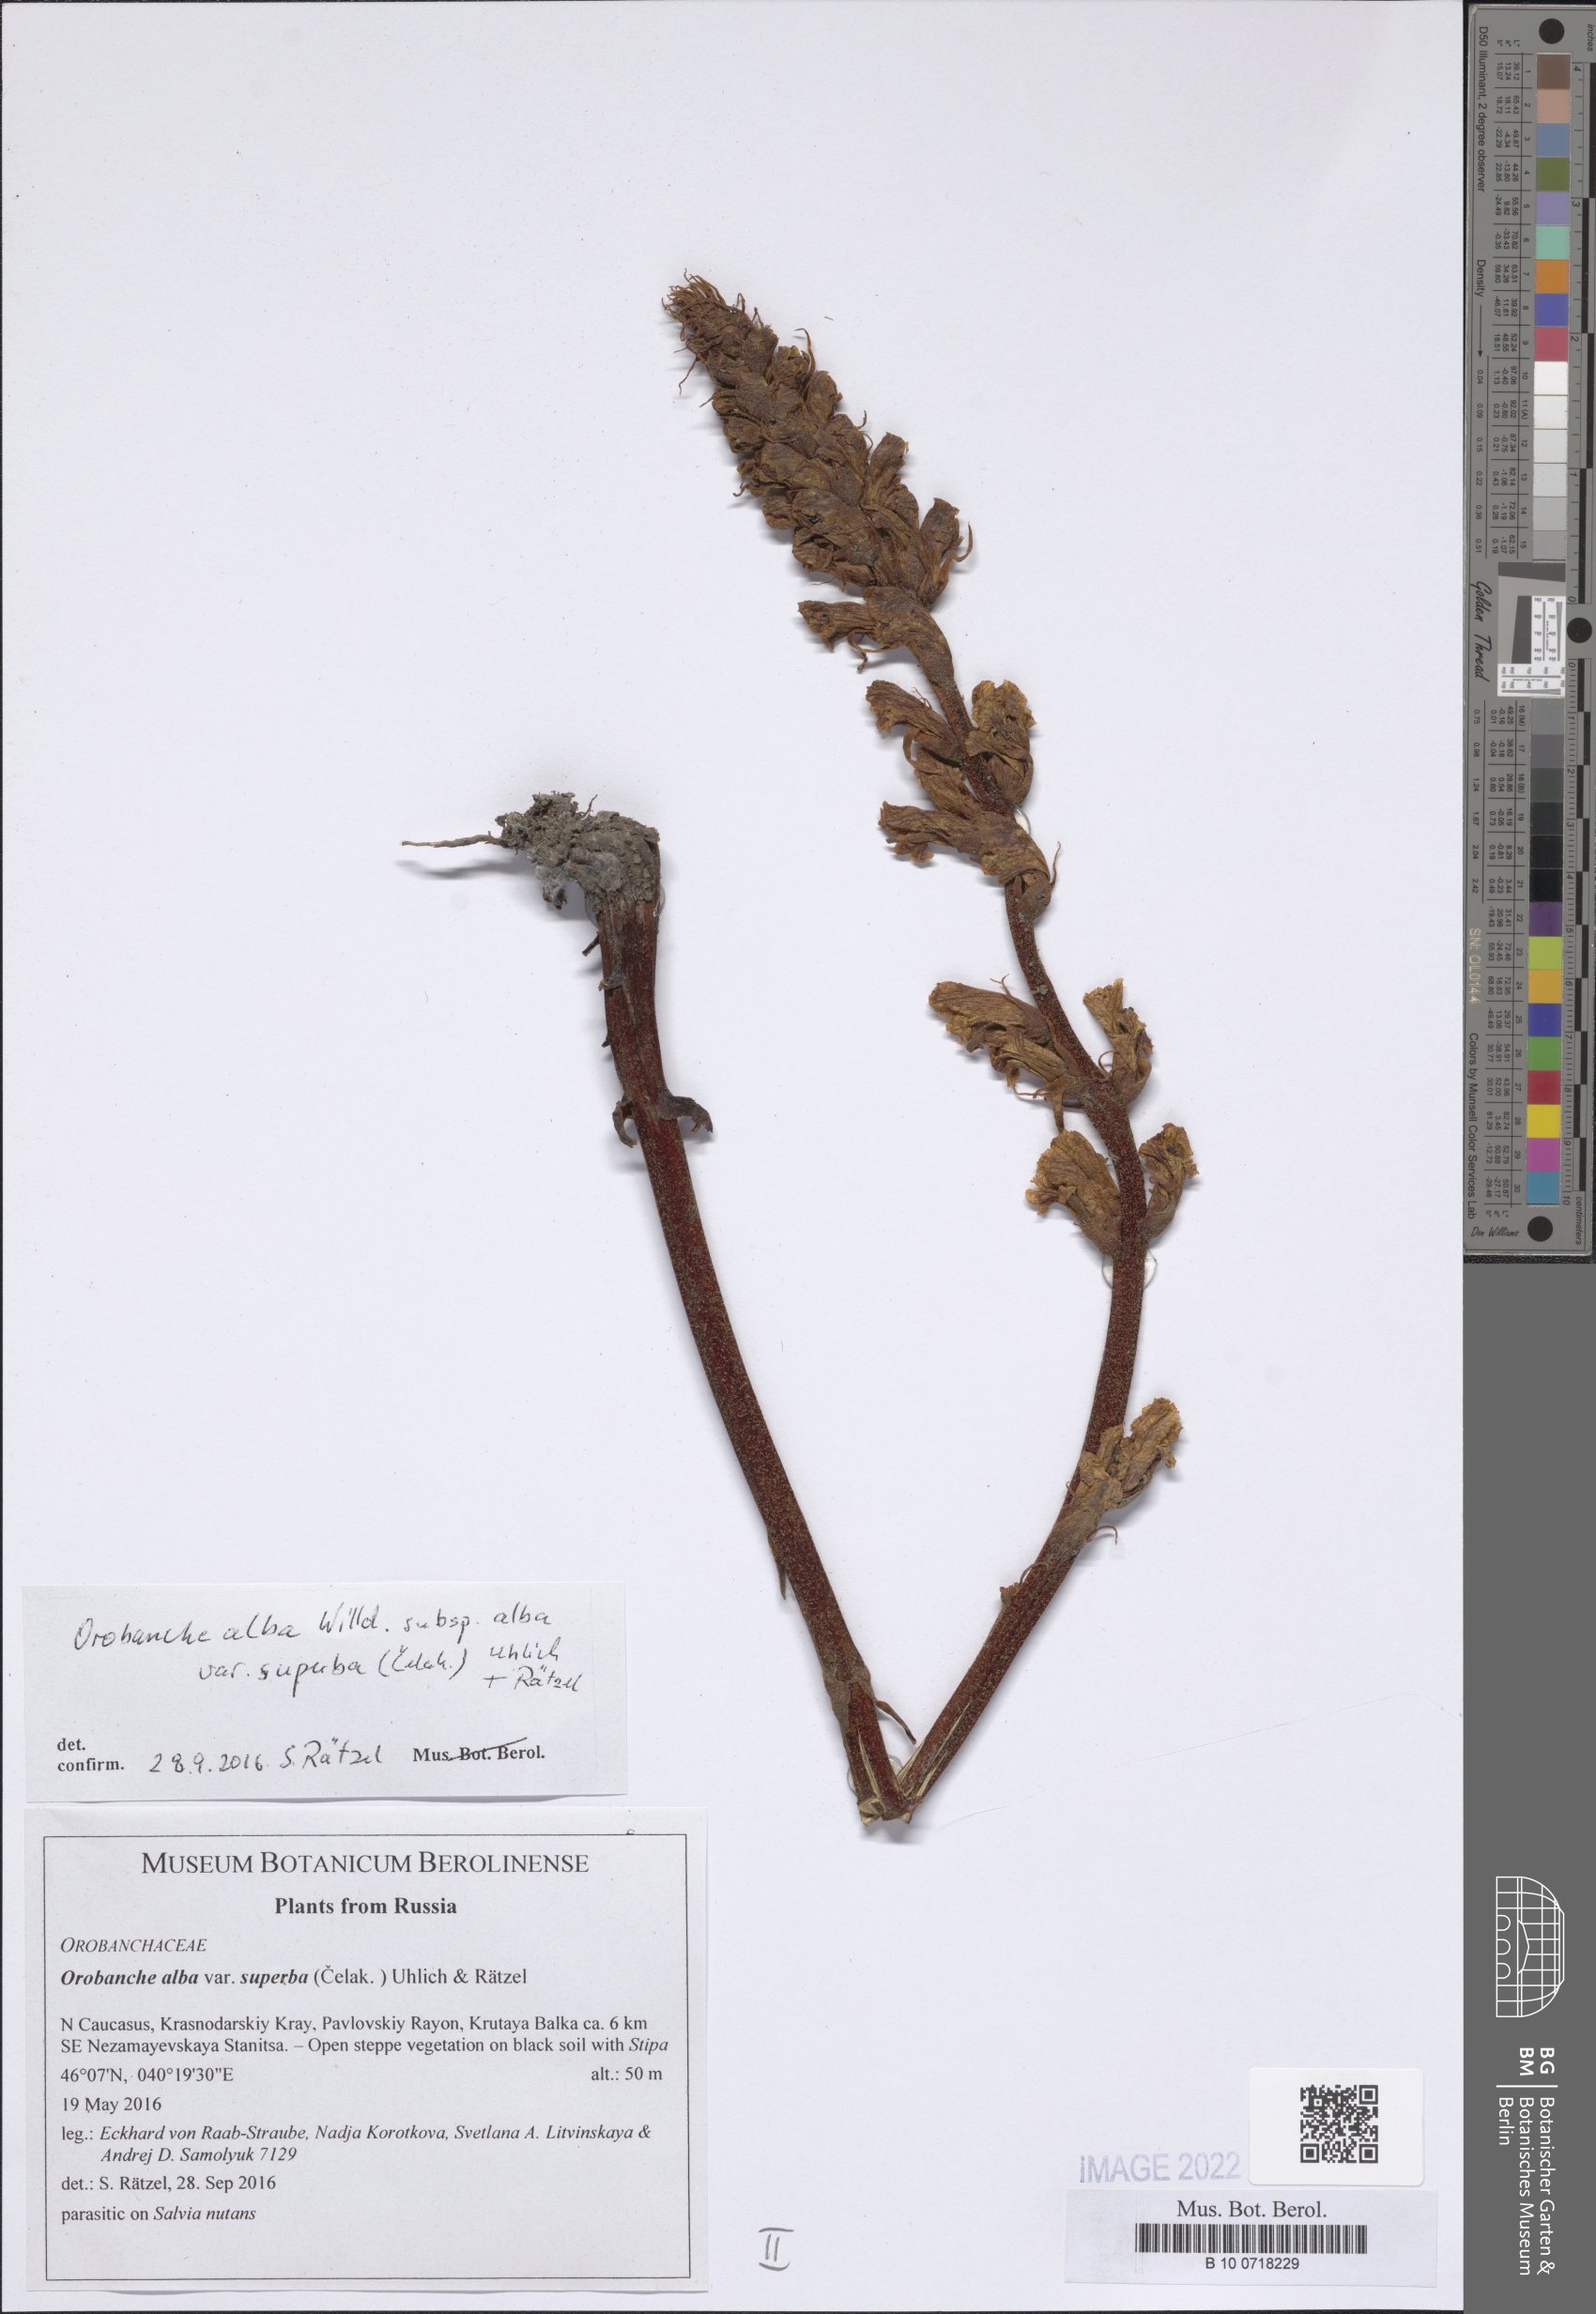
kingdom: Plantae
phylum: Tracheophyta
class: Magnoliopsida
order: Lamiales
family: Orobanchaceae
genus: Orobanche
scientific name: Orobanche alba
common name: Thyme broomrape
